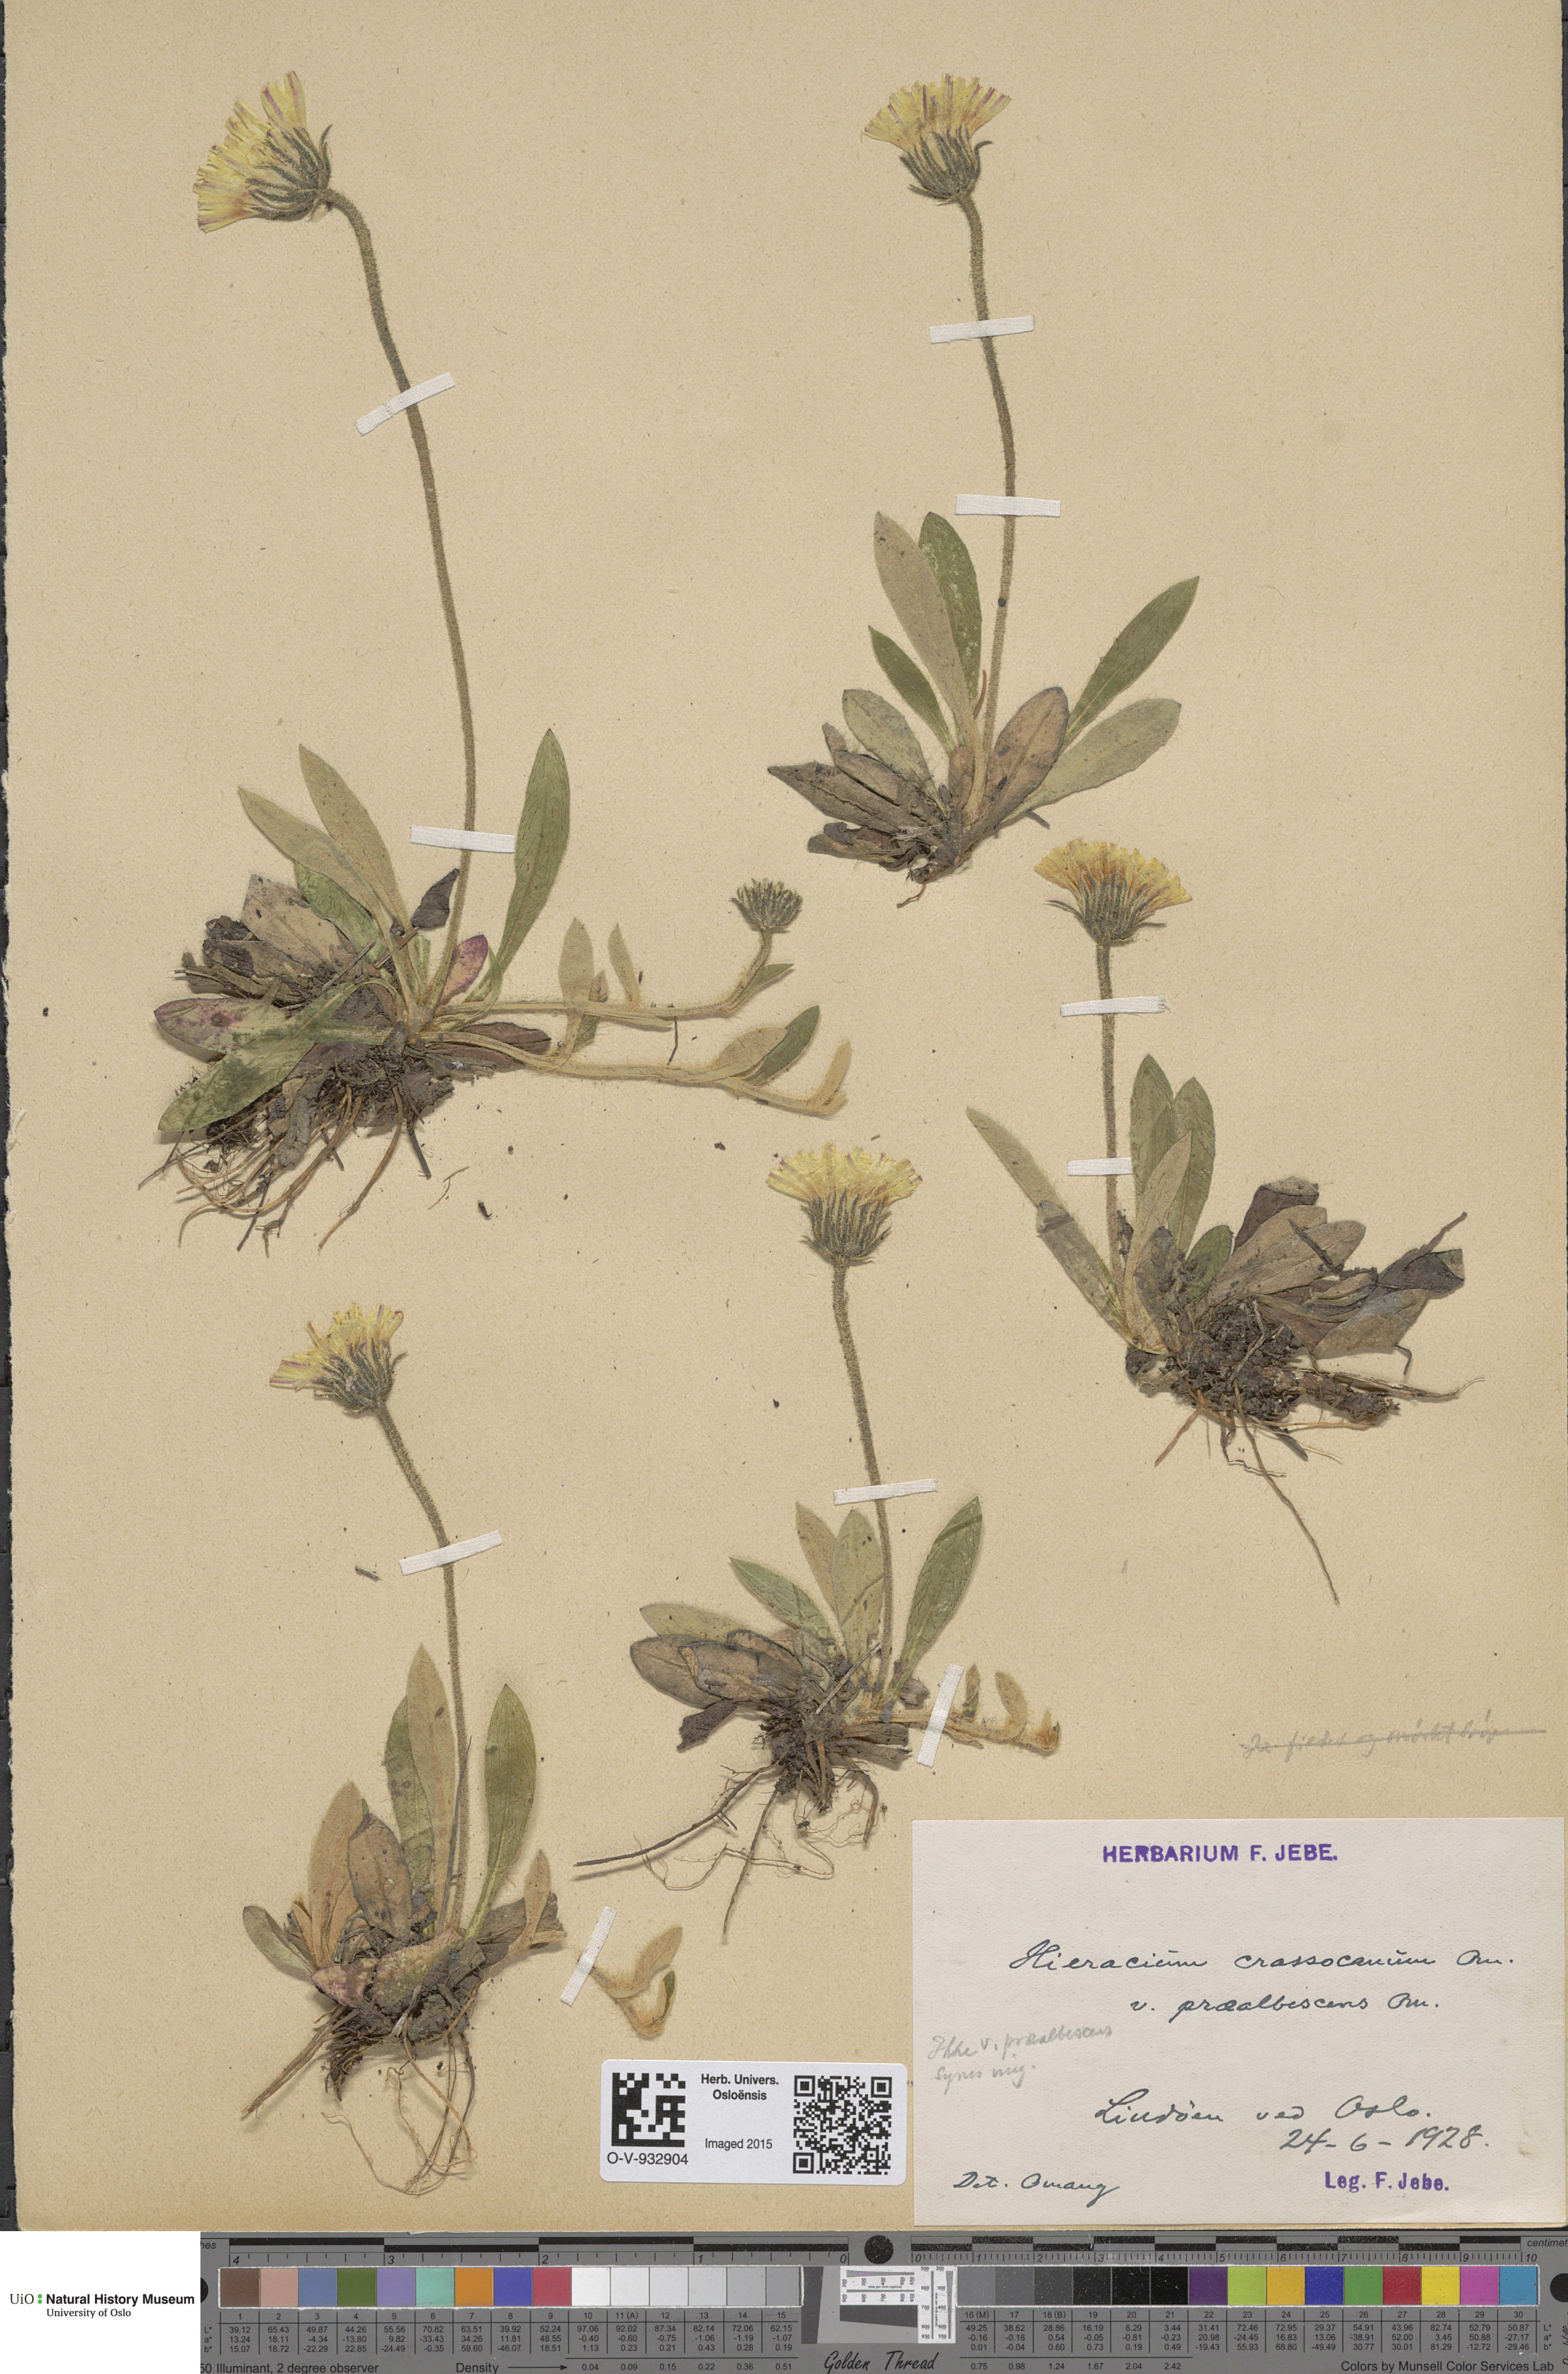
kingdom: Plantae
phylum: Tracheophyta
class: Magnoliopsida
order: Asterales
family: Asteraceae
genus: Pilosella
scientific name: Pilosella officinarum
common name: Mouse-ear hawkweed
